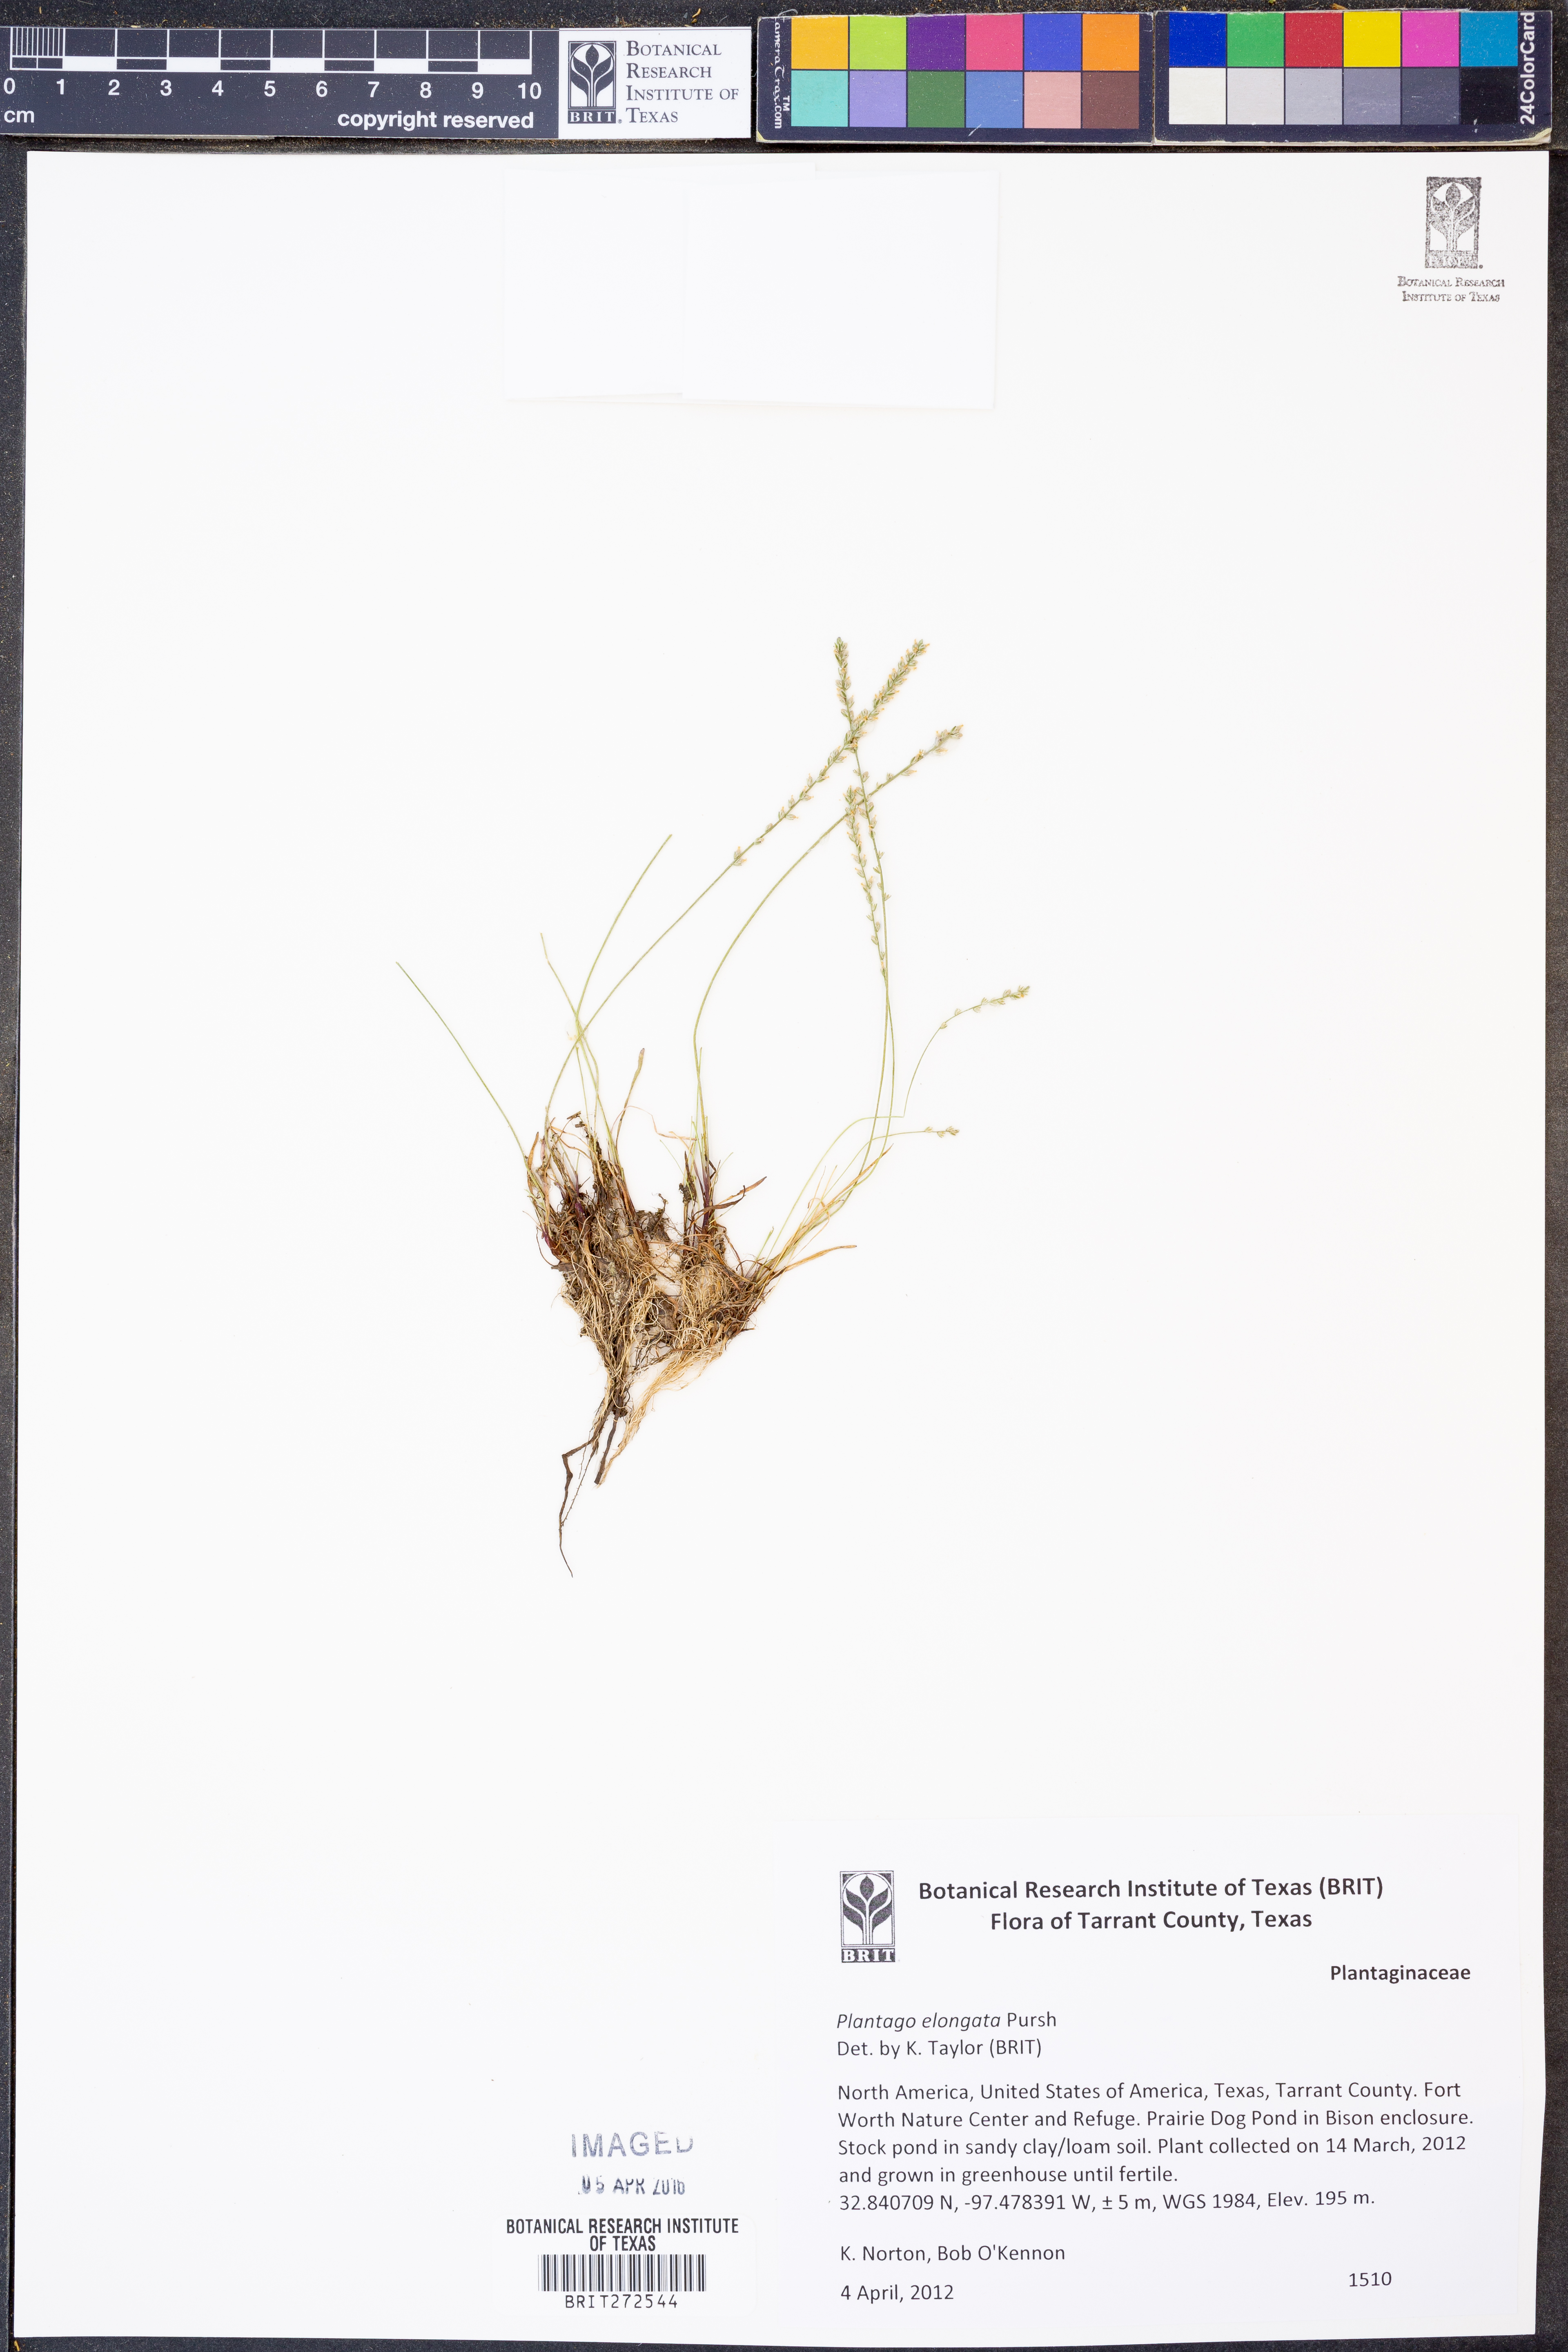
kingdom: Plantae
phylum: Tracheophyta
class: Magnoliopsida
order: Lamiales
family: Plantaginaceae
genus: Plantago
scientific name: Plantago elongata
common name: Linear-leaved plantain
